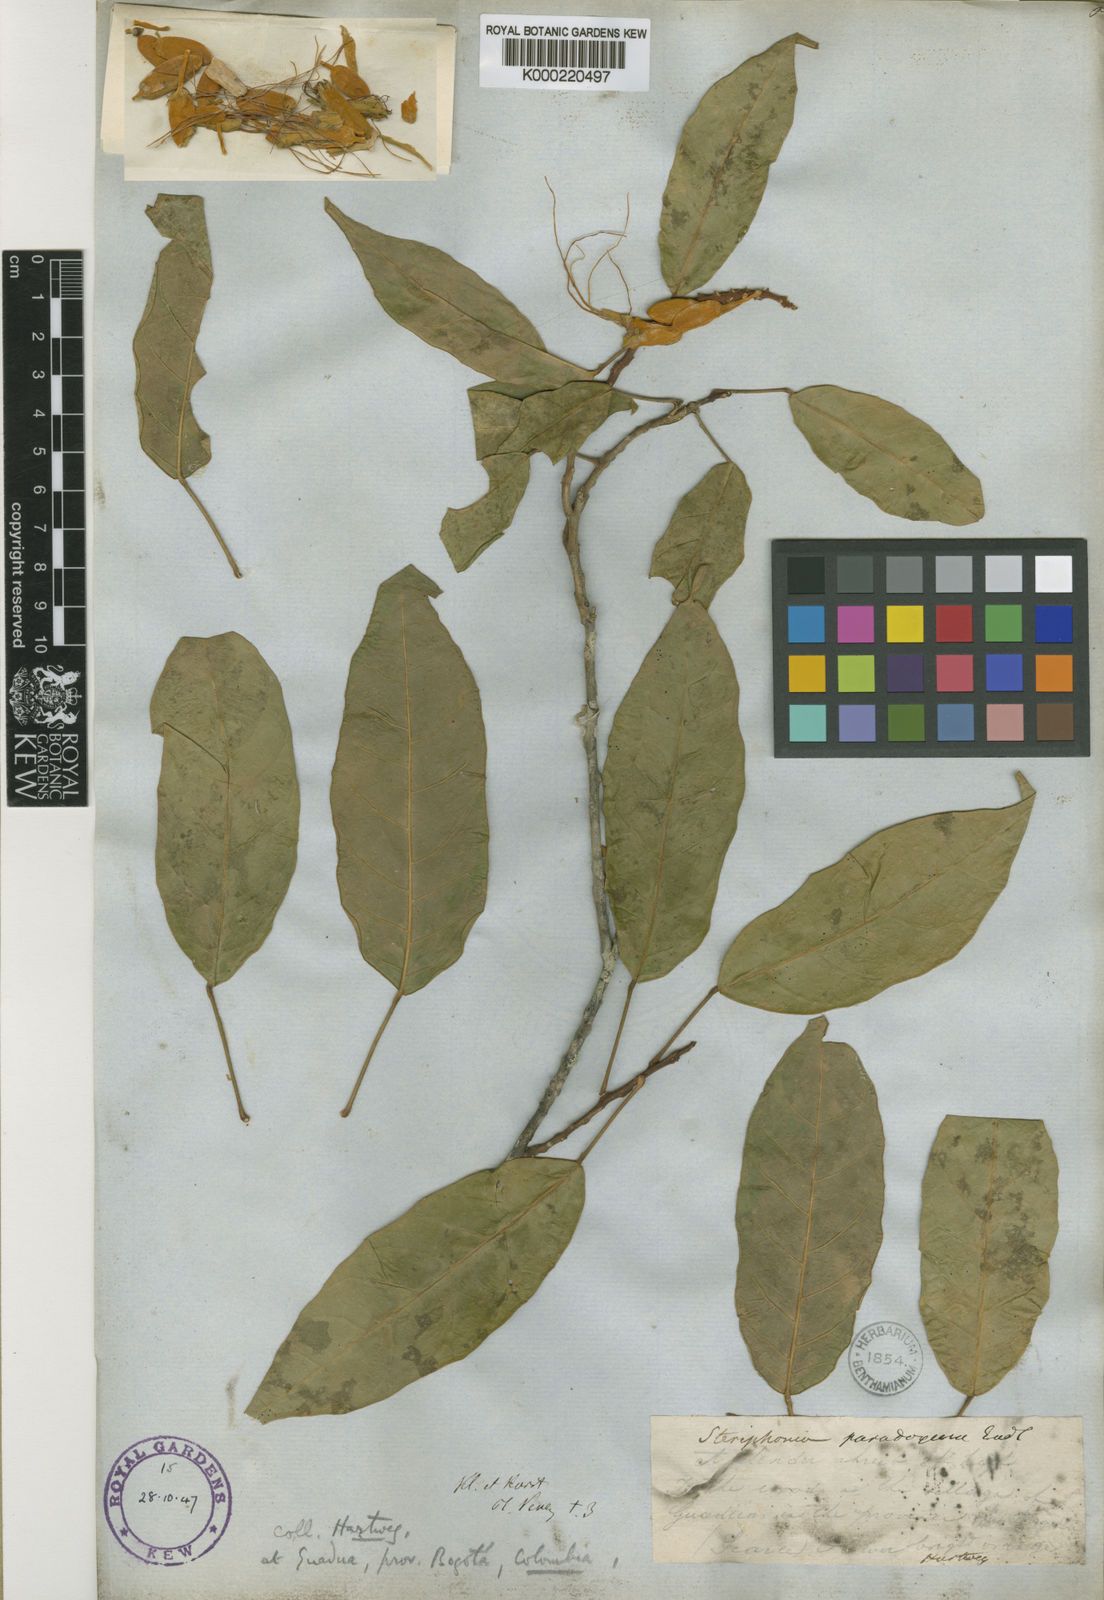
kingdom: Plantae
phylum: Tracheophyta
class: Magnoliopsida
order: Brassicales
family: Capparaceae
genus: Steriphoma
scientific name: Steriphoma paradoxum
